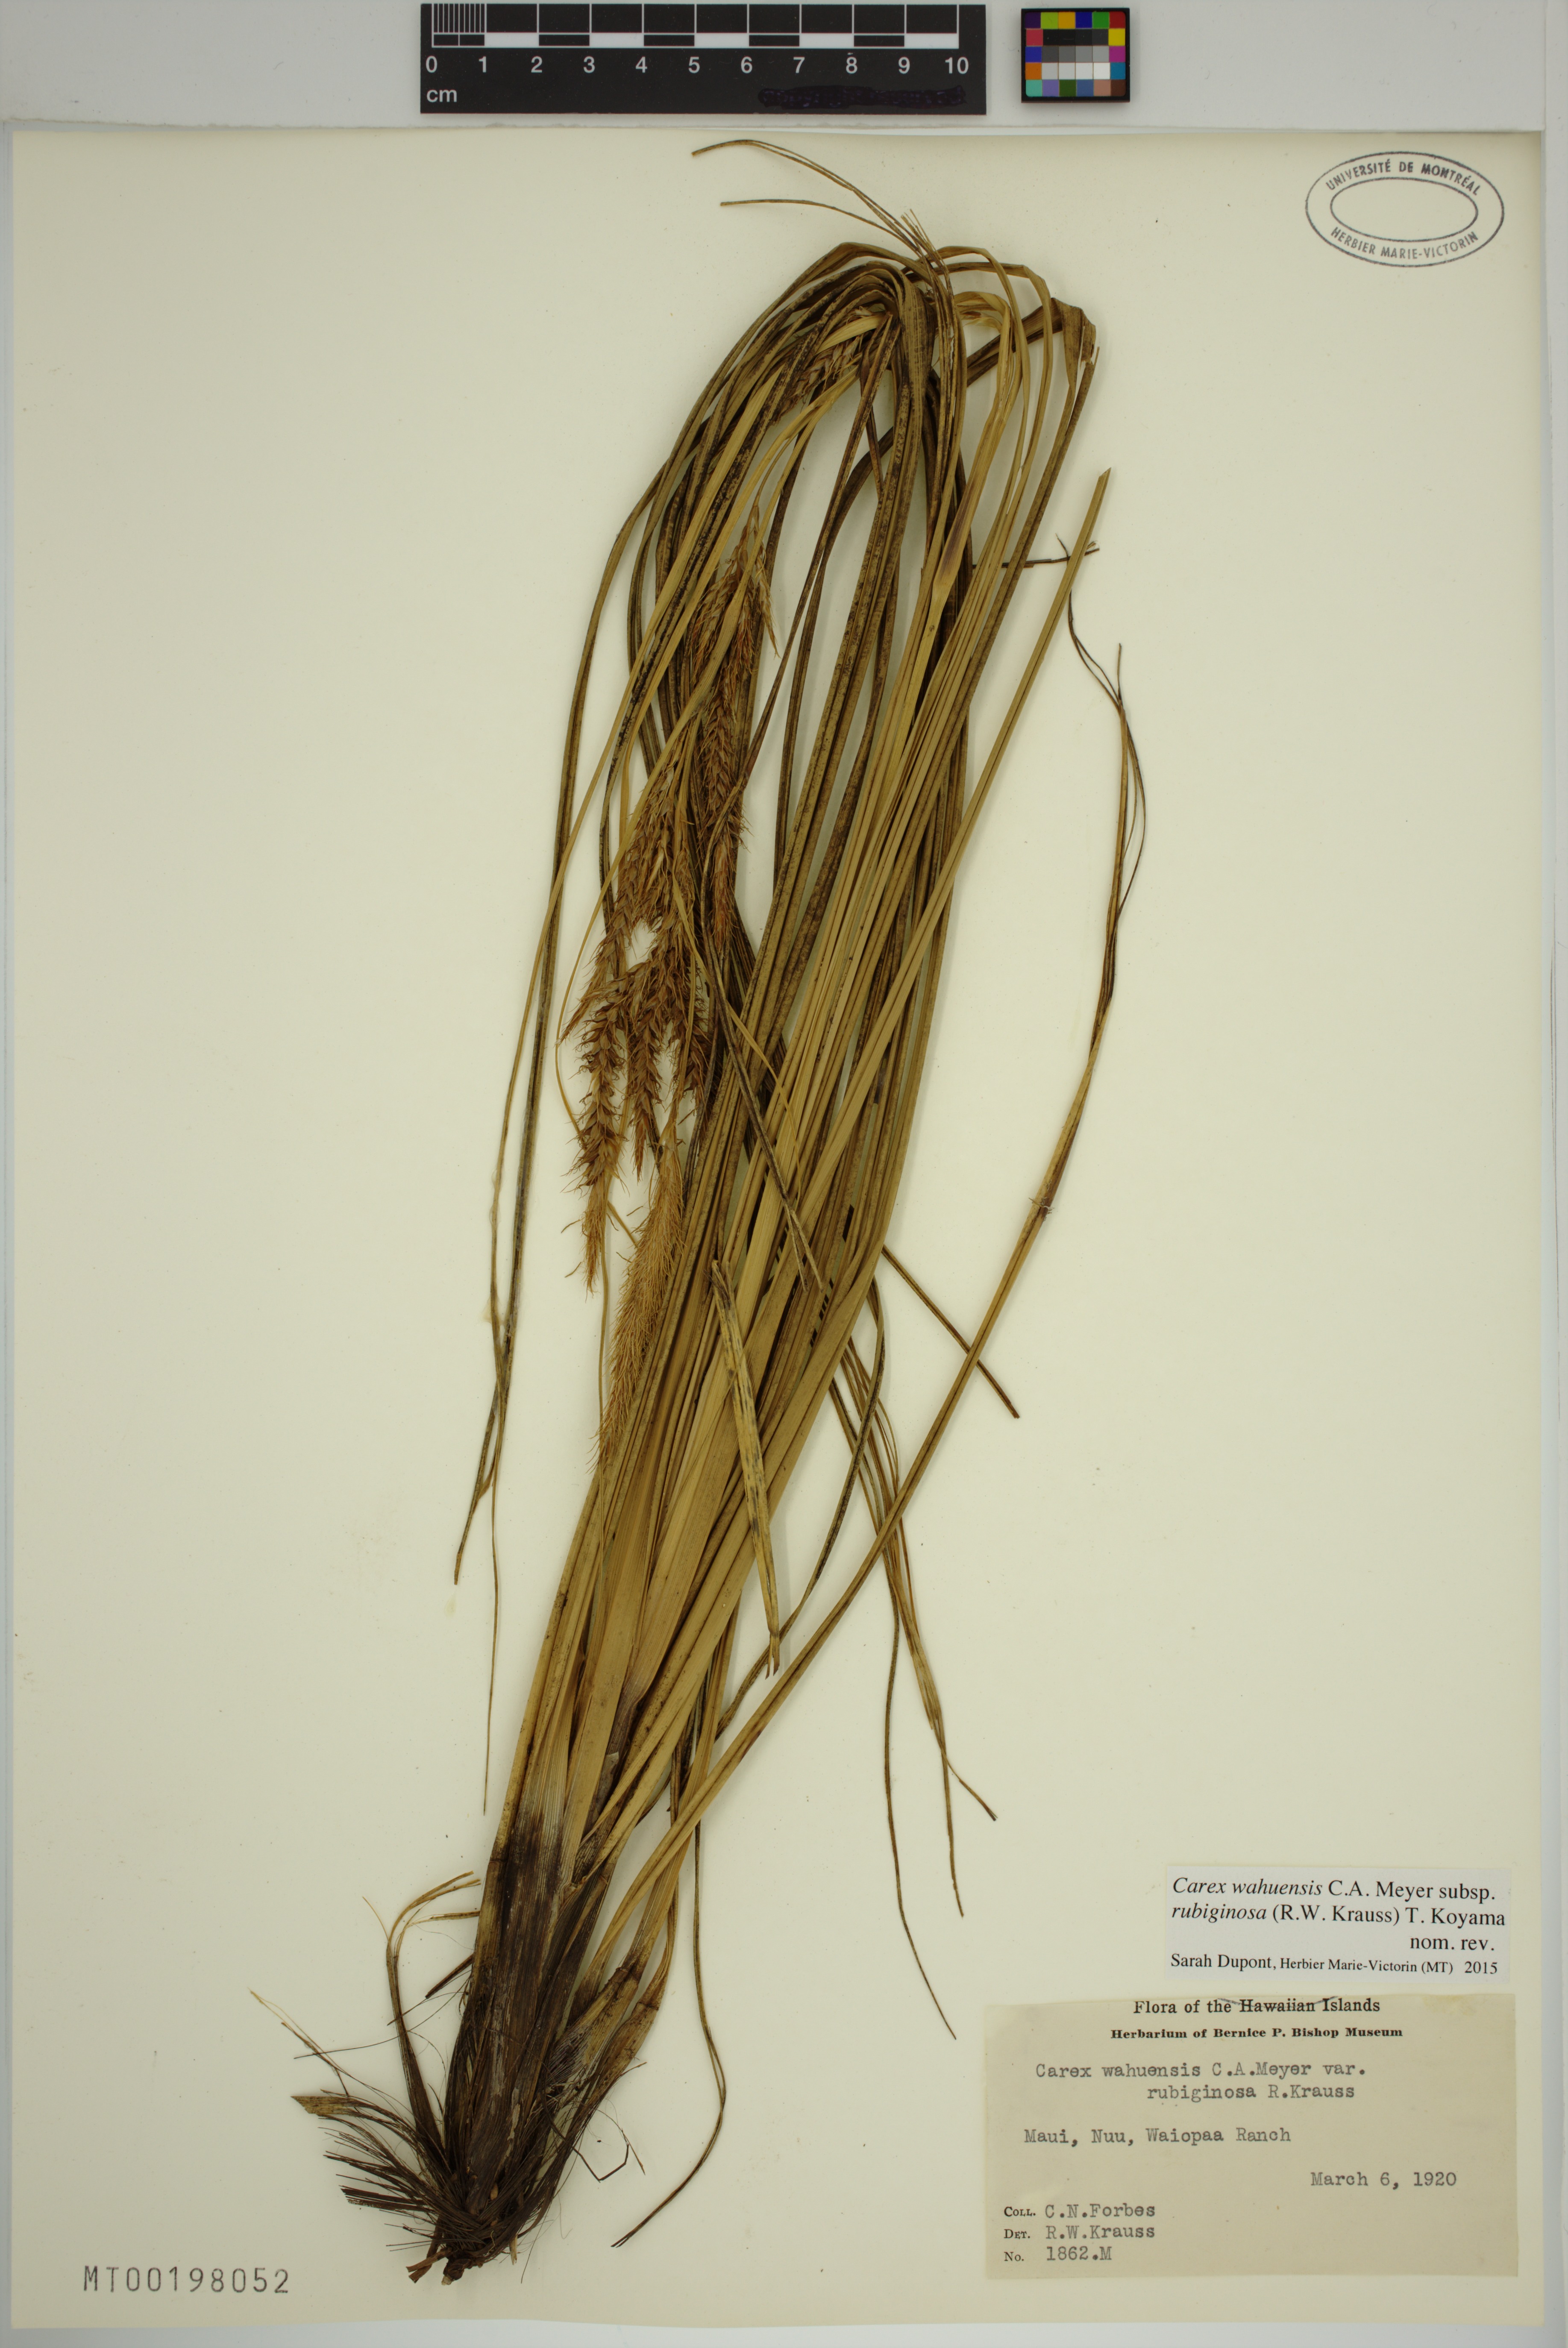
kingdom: Plantae
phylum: Tracheophyta
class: Liliopsida
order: Poales
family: Cyperaceae
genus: Carex
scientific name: Carex wahuensis
